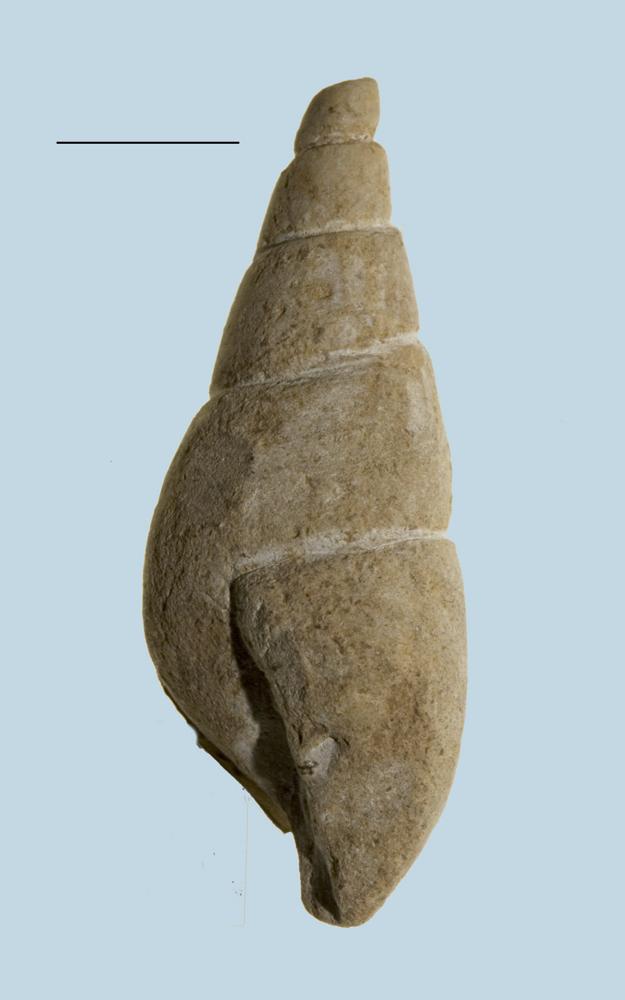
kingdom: Animalia
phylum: Mollusca
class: Gastropoda
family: Subulitidae
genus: Subulites
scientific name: Subulites
